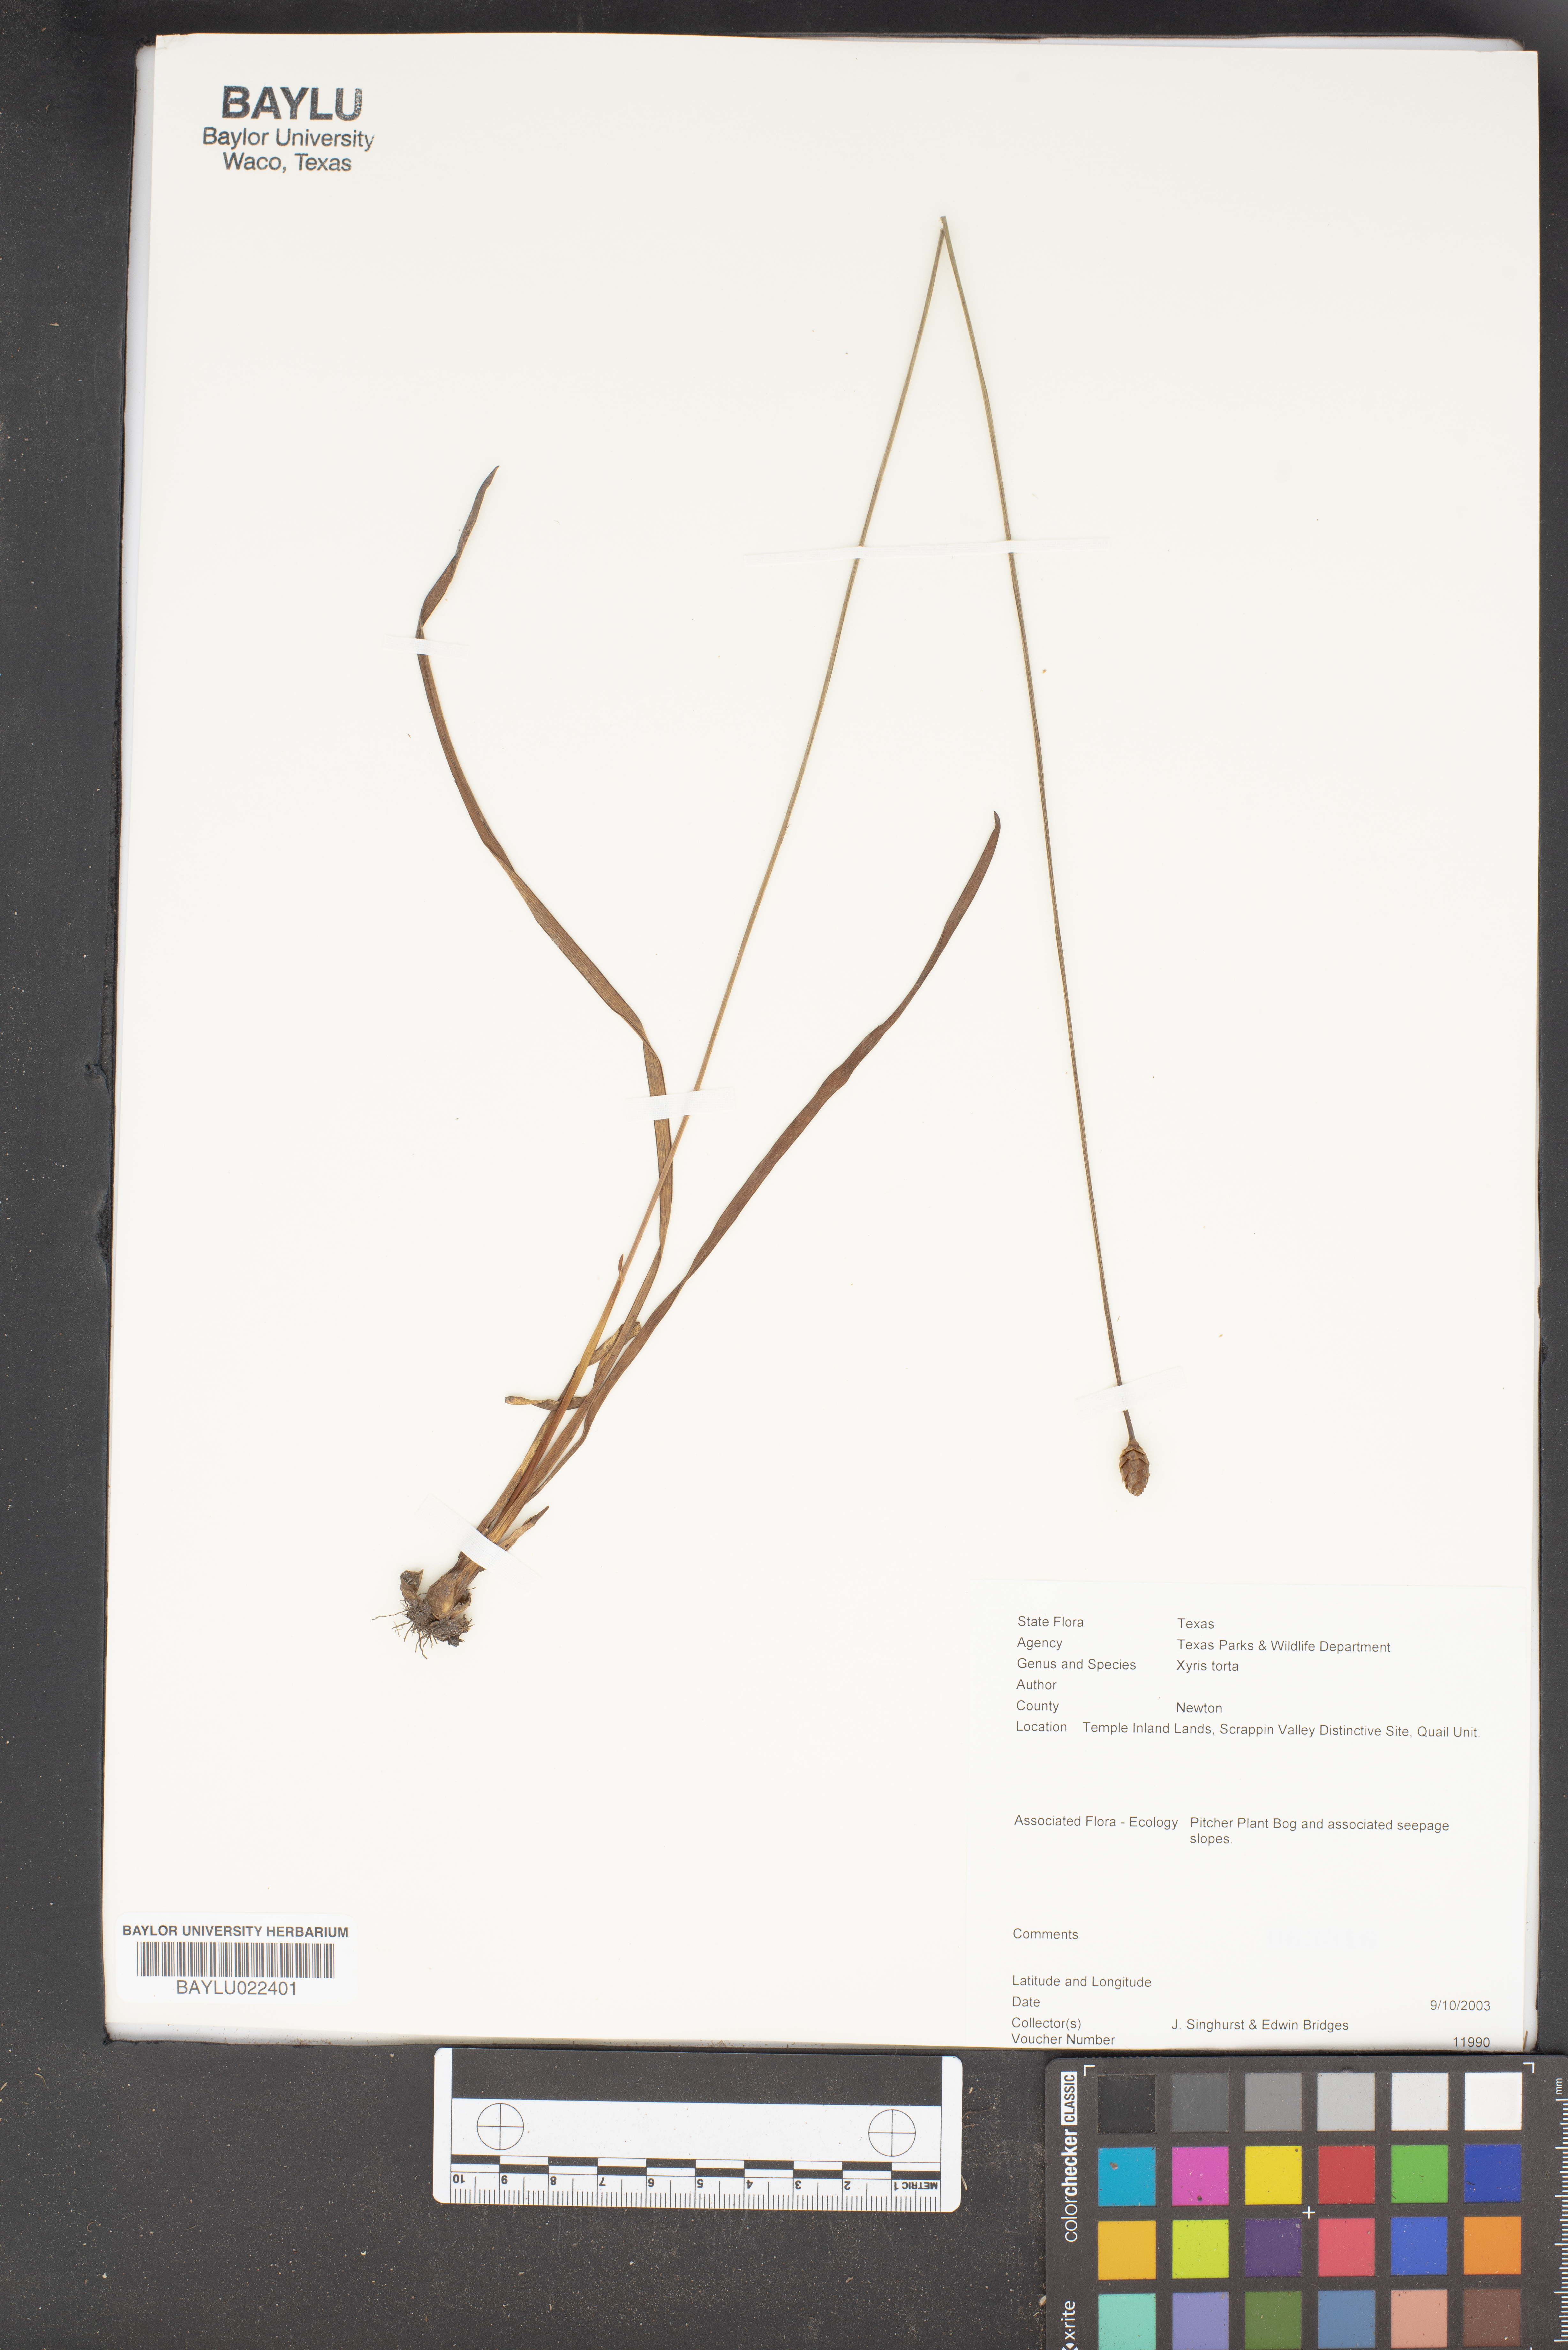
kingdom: Plantae
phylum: Tracheophyta
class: Liliopsida
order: Poales
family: Xyridaceae
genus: Xyris
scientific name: Xyris torta
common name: Common yelloweyed grass
